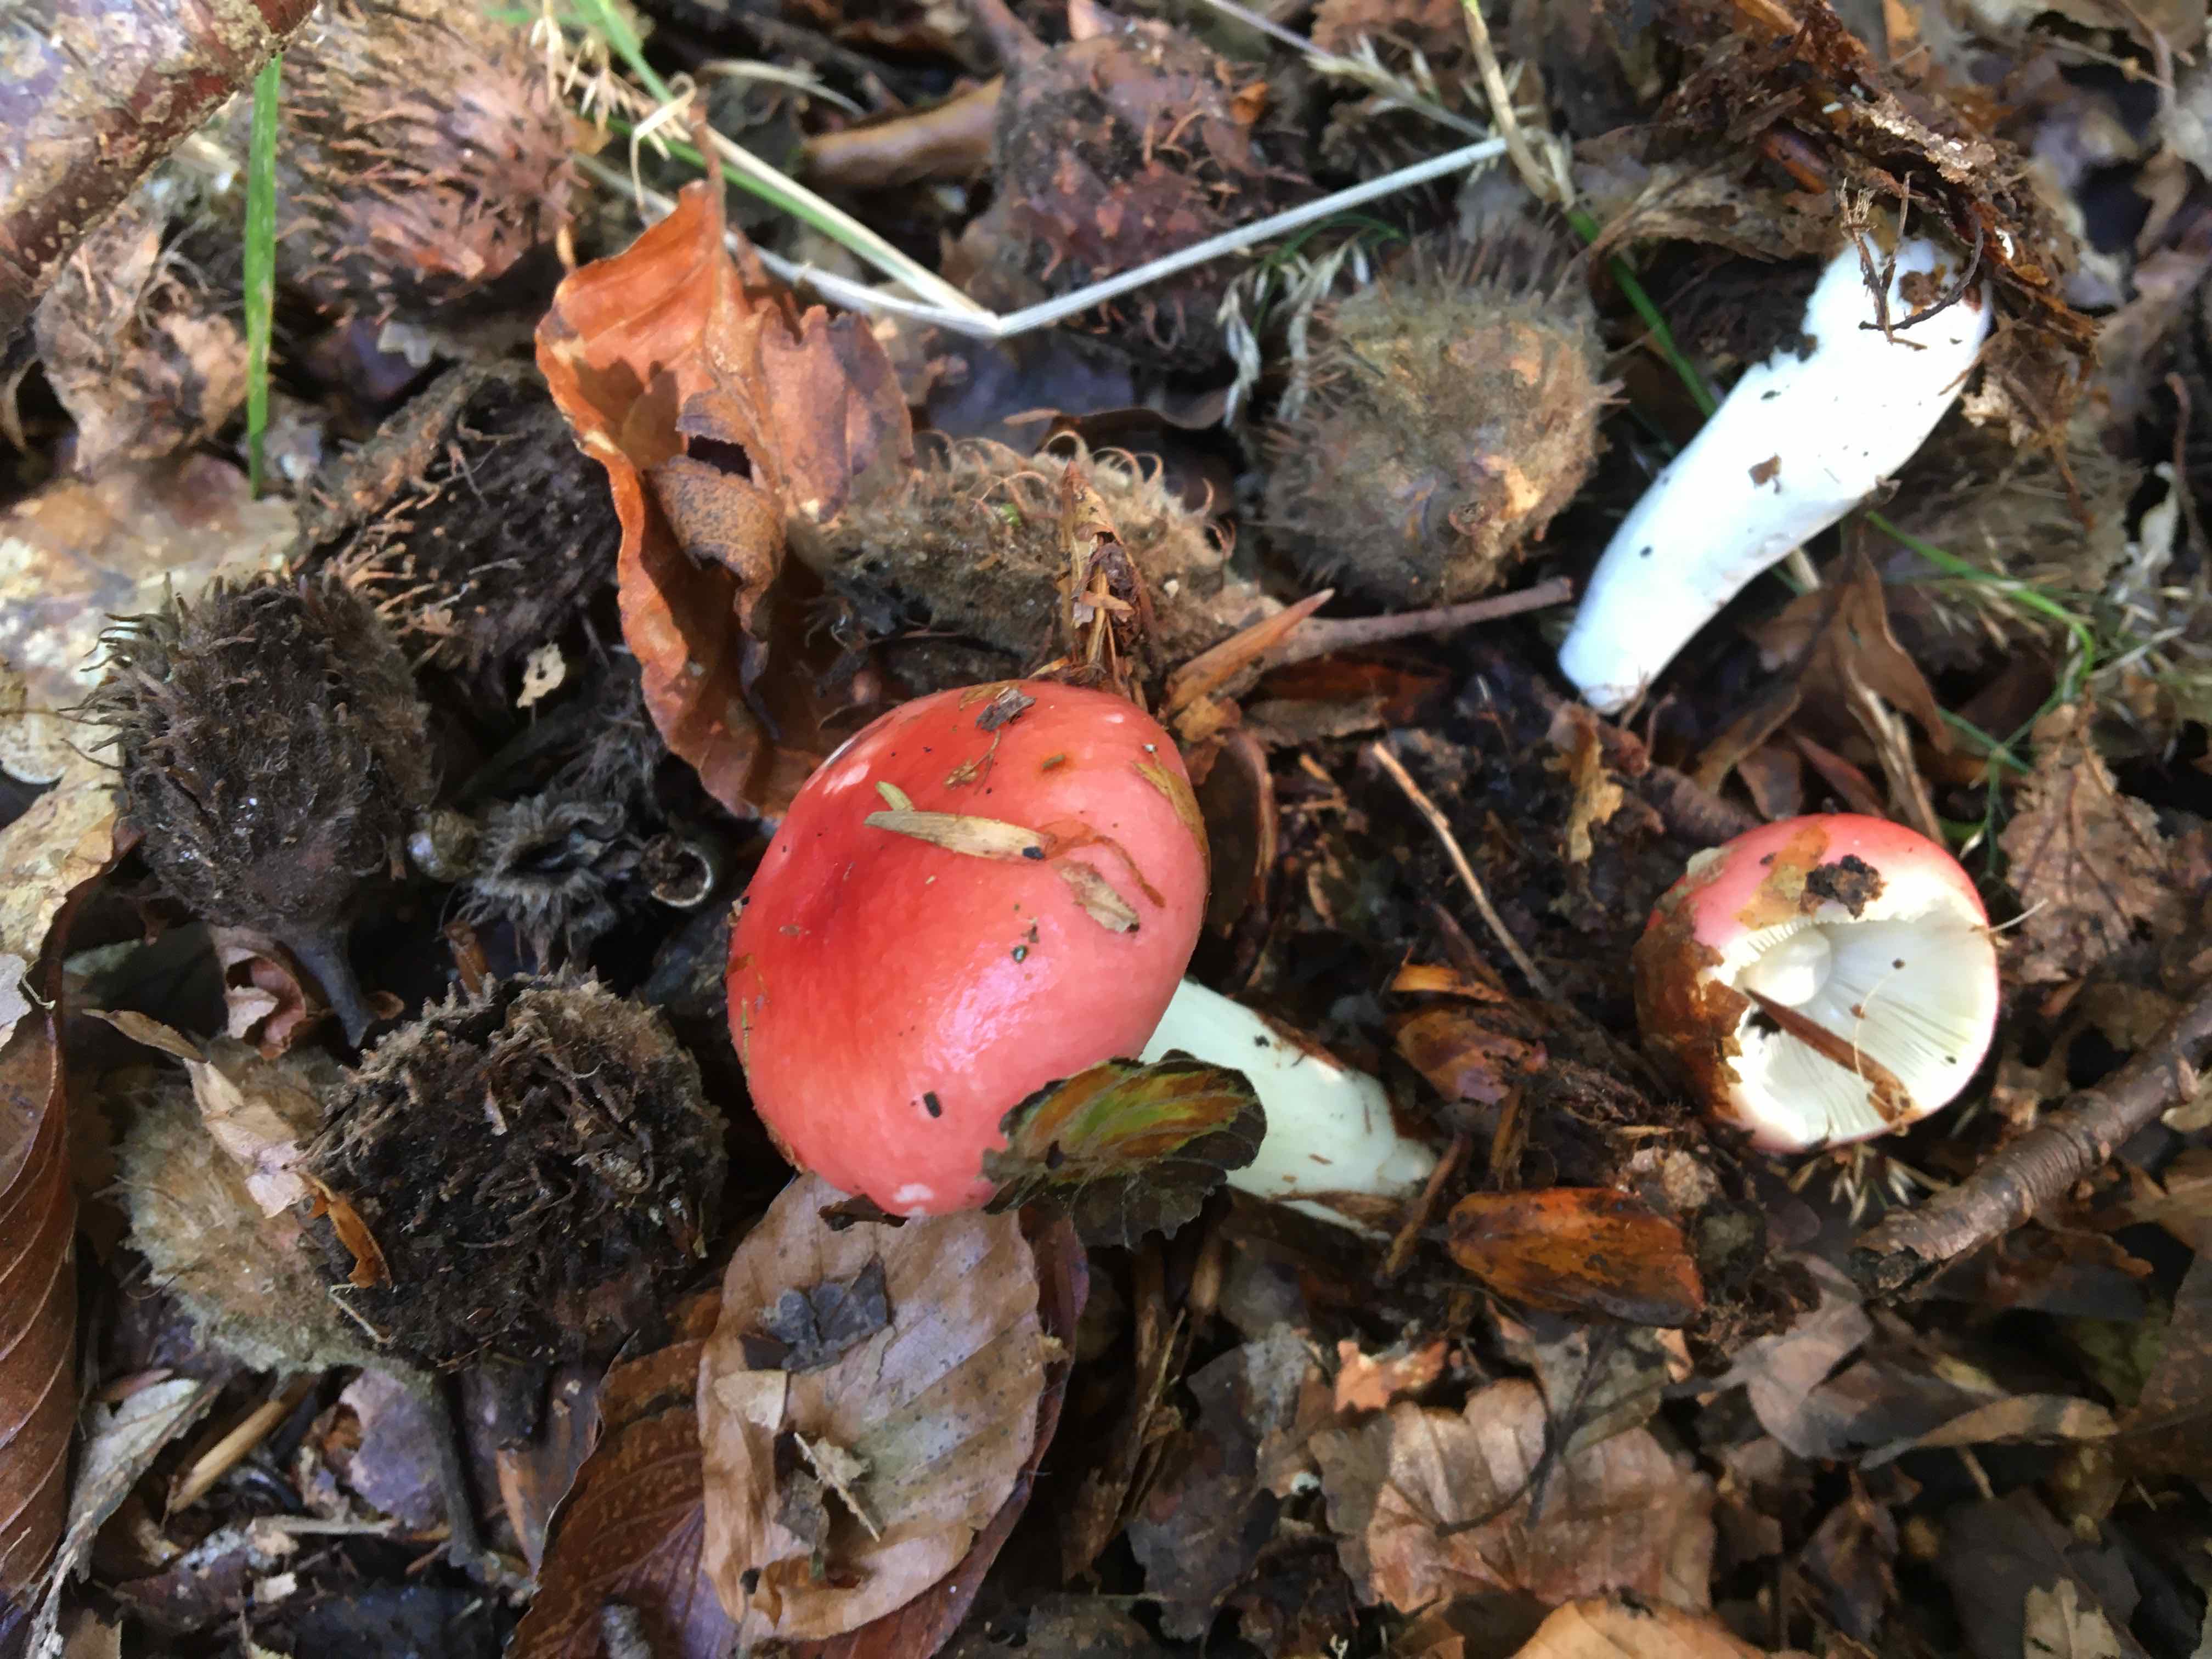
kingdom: Fungi
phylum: Basidiomycota
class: Agaricomycetes
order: Russulales
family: Russulaceae
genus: Russula
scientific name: Russula silvestris
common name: mellemstor gift-skørhat
